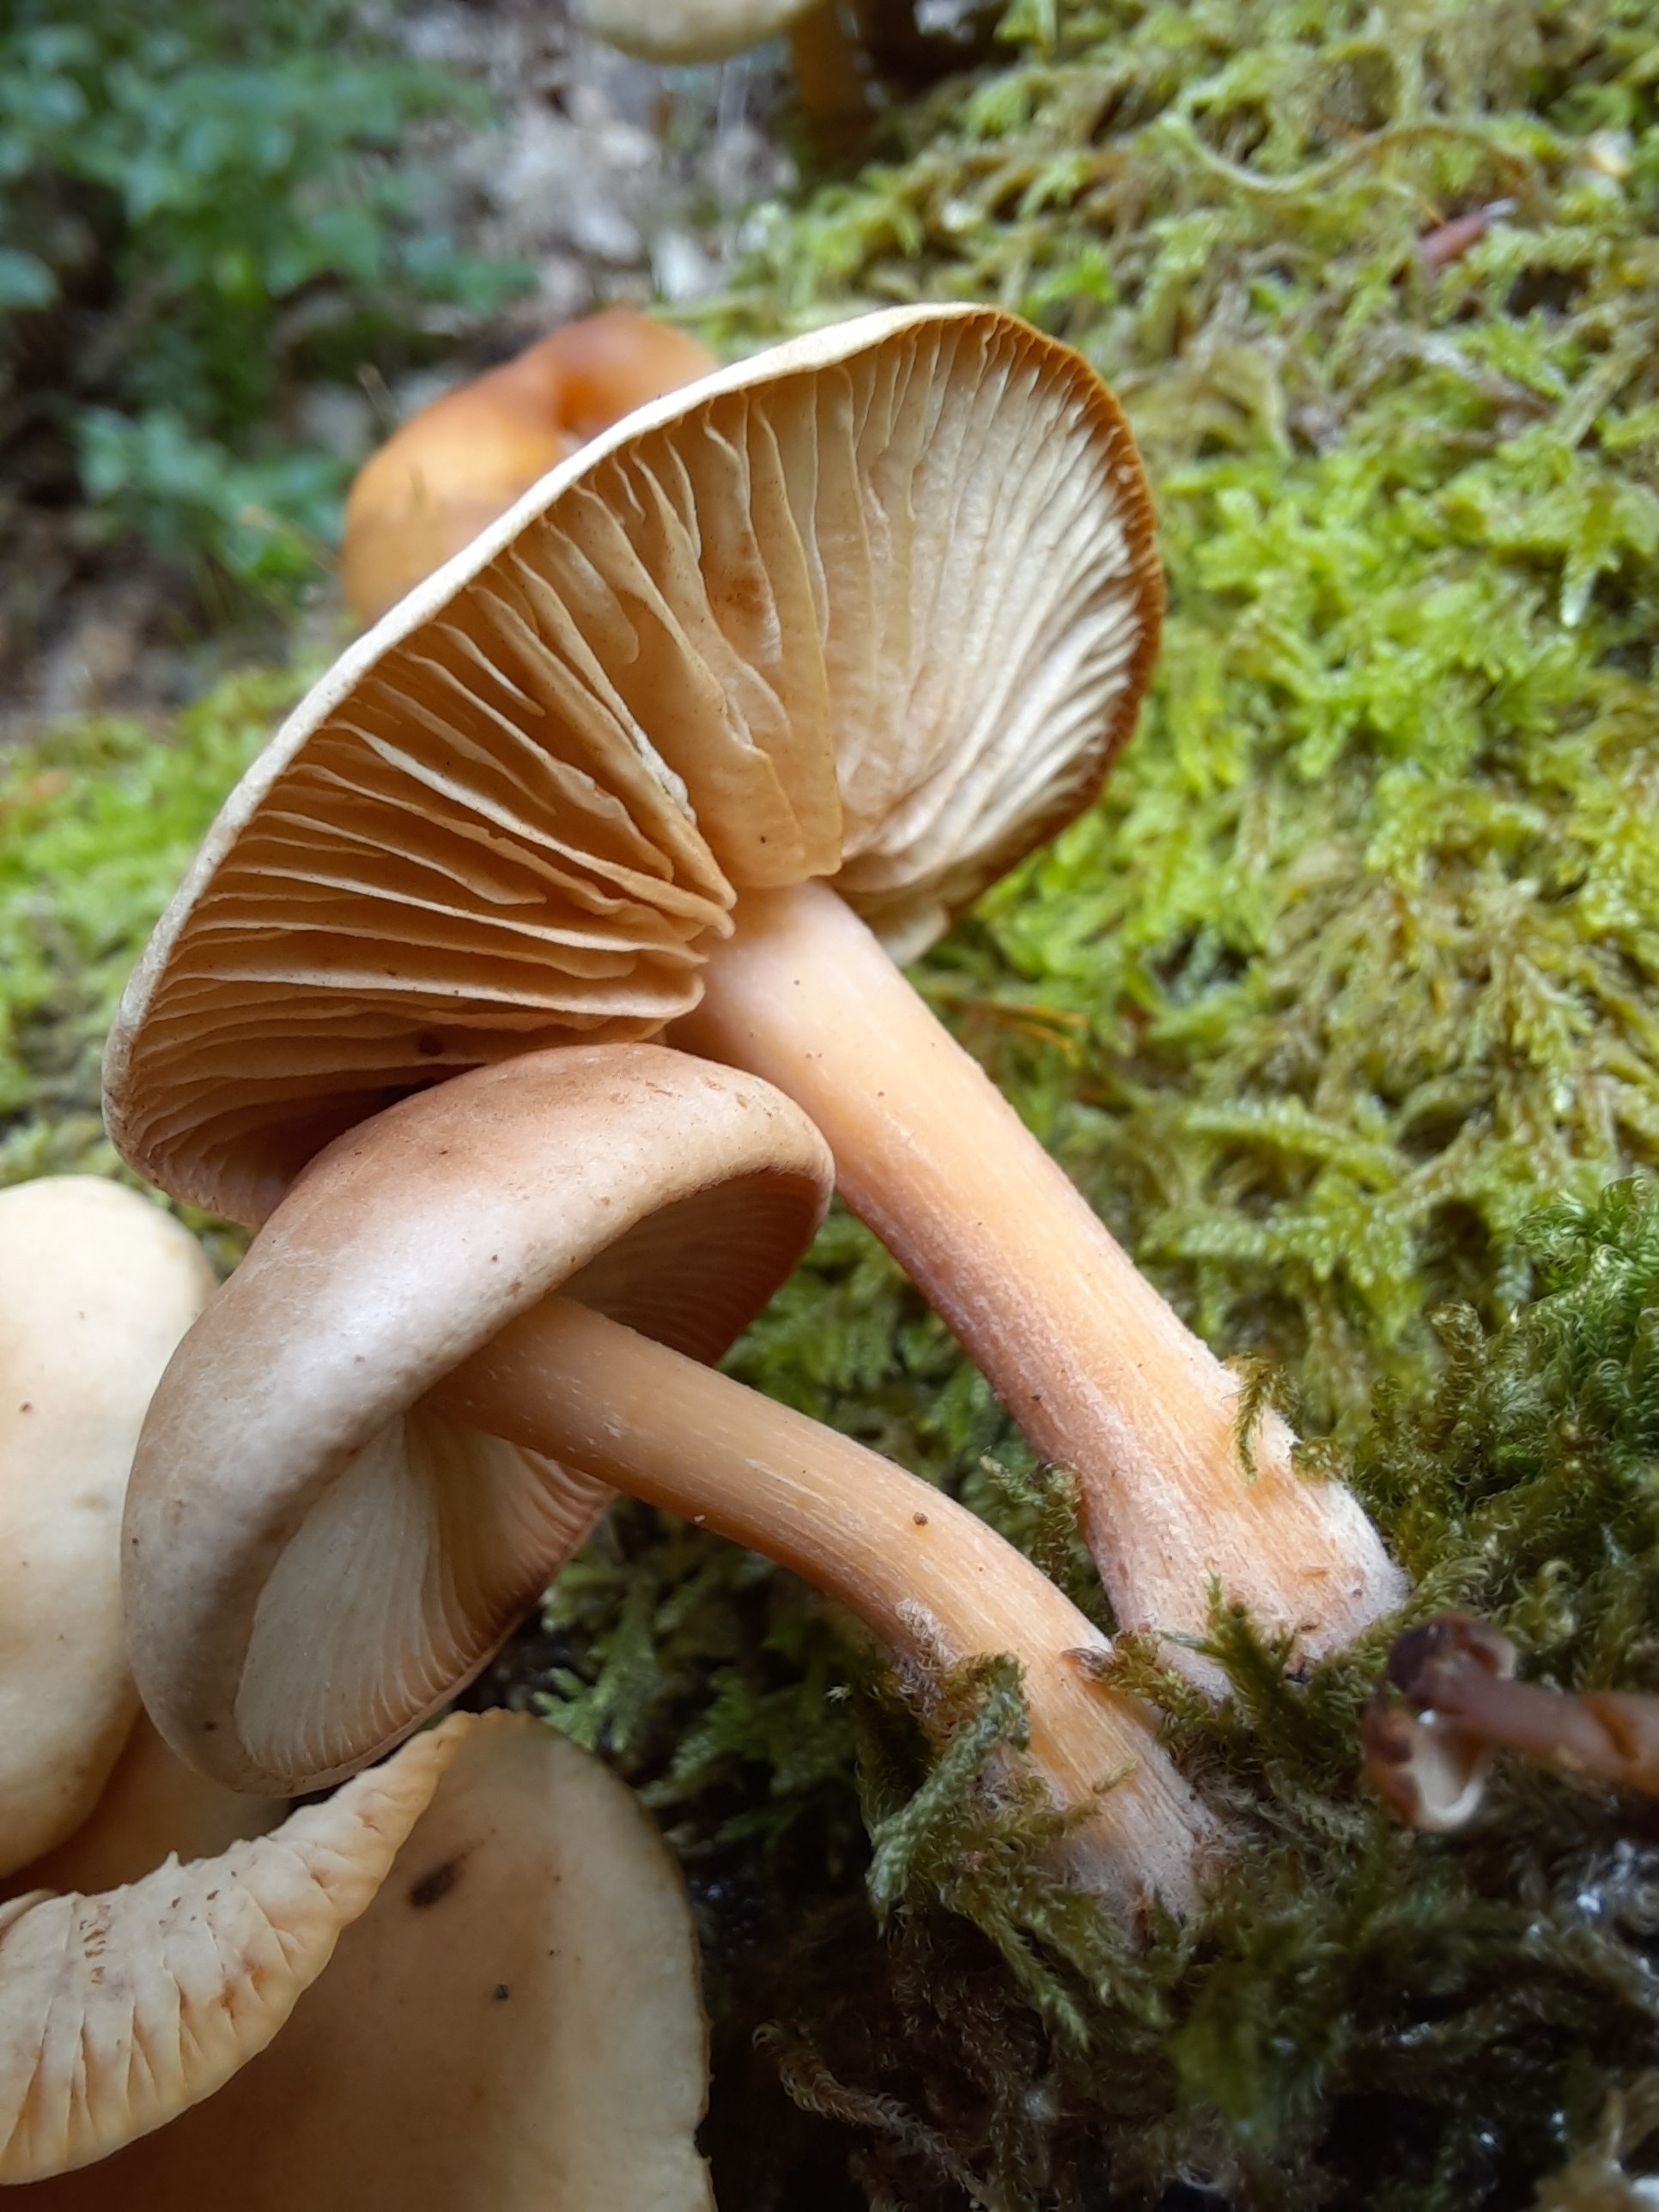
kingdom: Fungi
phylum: Basidiomycota
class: Agaricomycetes
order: Agaricales
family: Omphalotaceae
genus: Gymnopus
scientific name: Gymnopus
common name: fladhat
